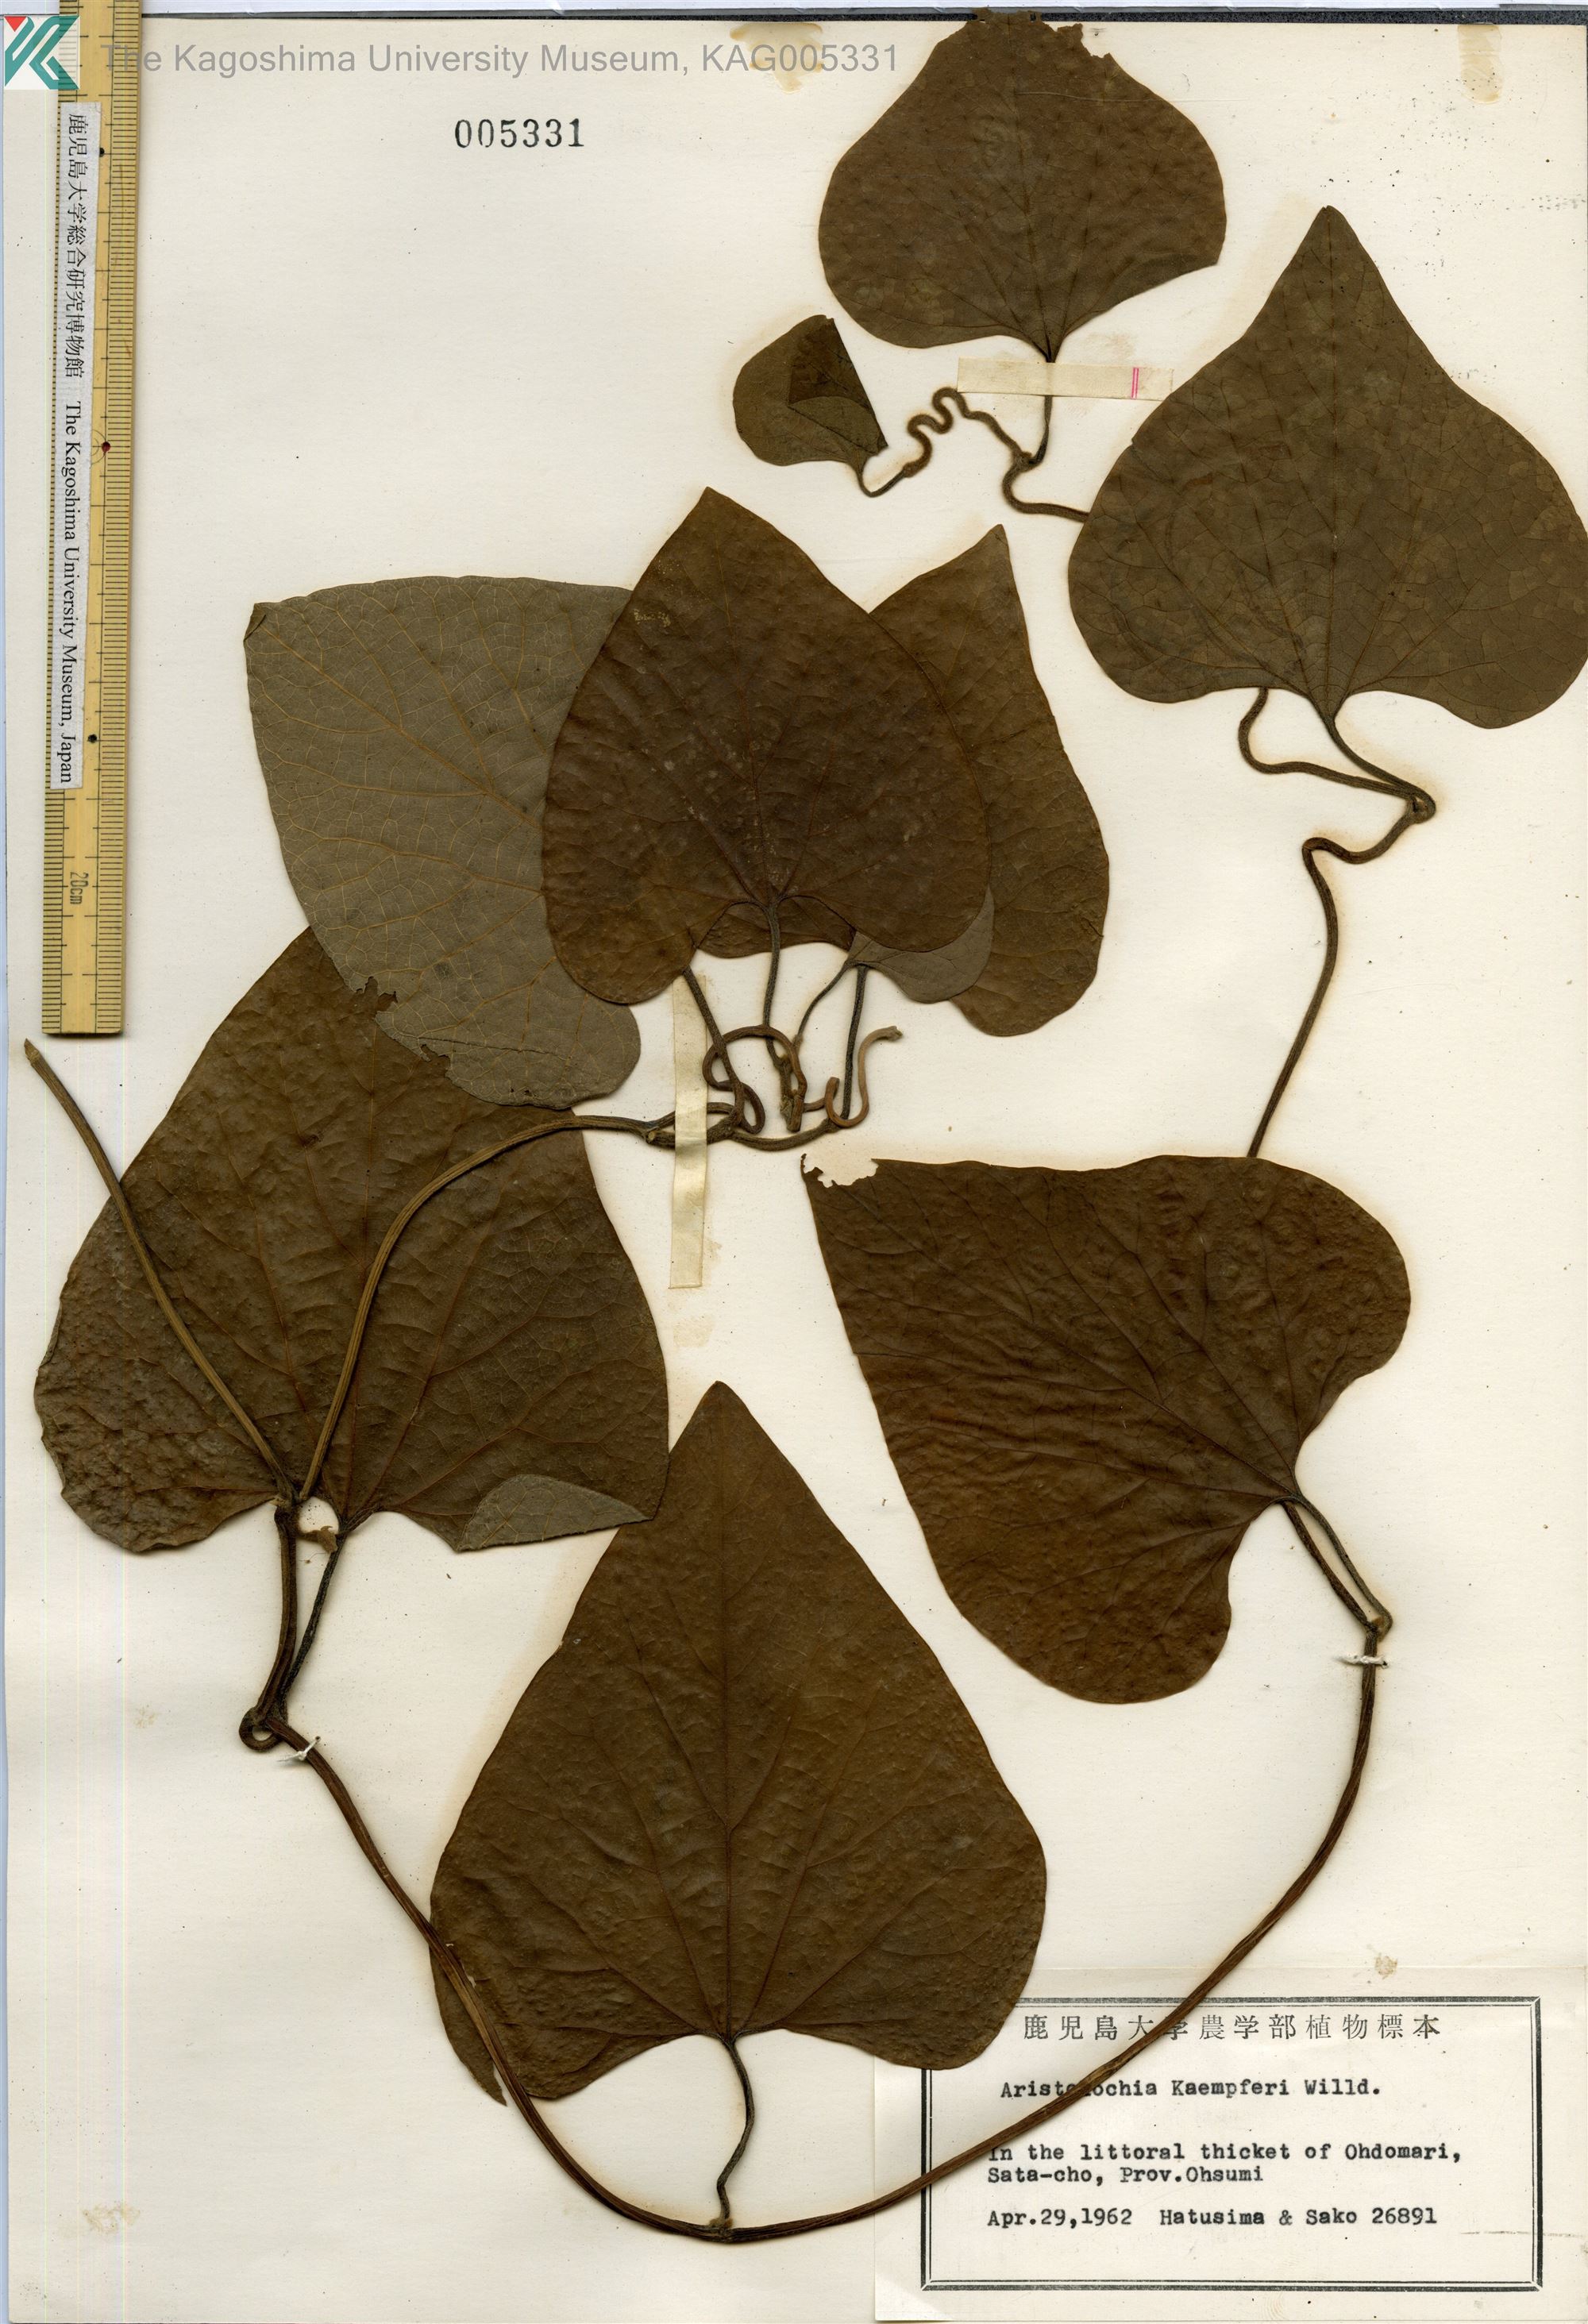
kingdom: Plantae
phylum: Tracheophyta
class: Magnoliopsida
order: Piperales
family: Aristolochiaceae
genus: Isotrema
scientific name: Isotrema kaempferi
